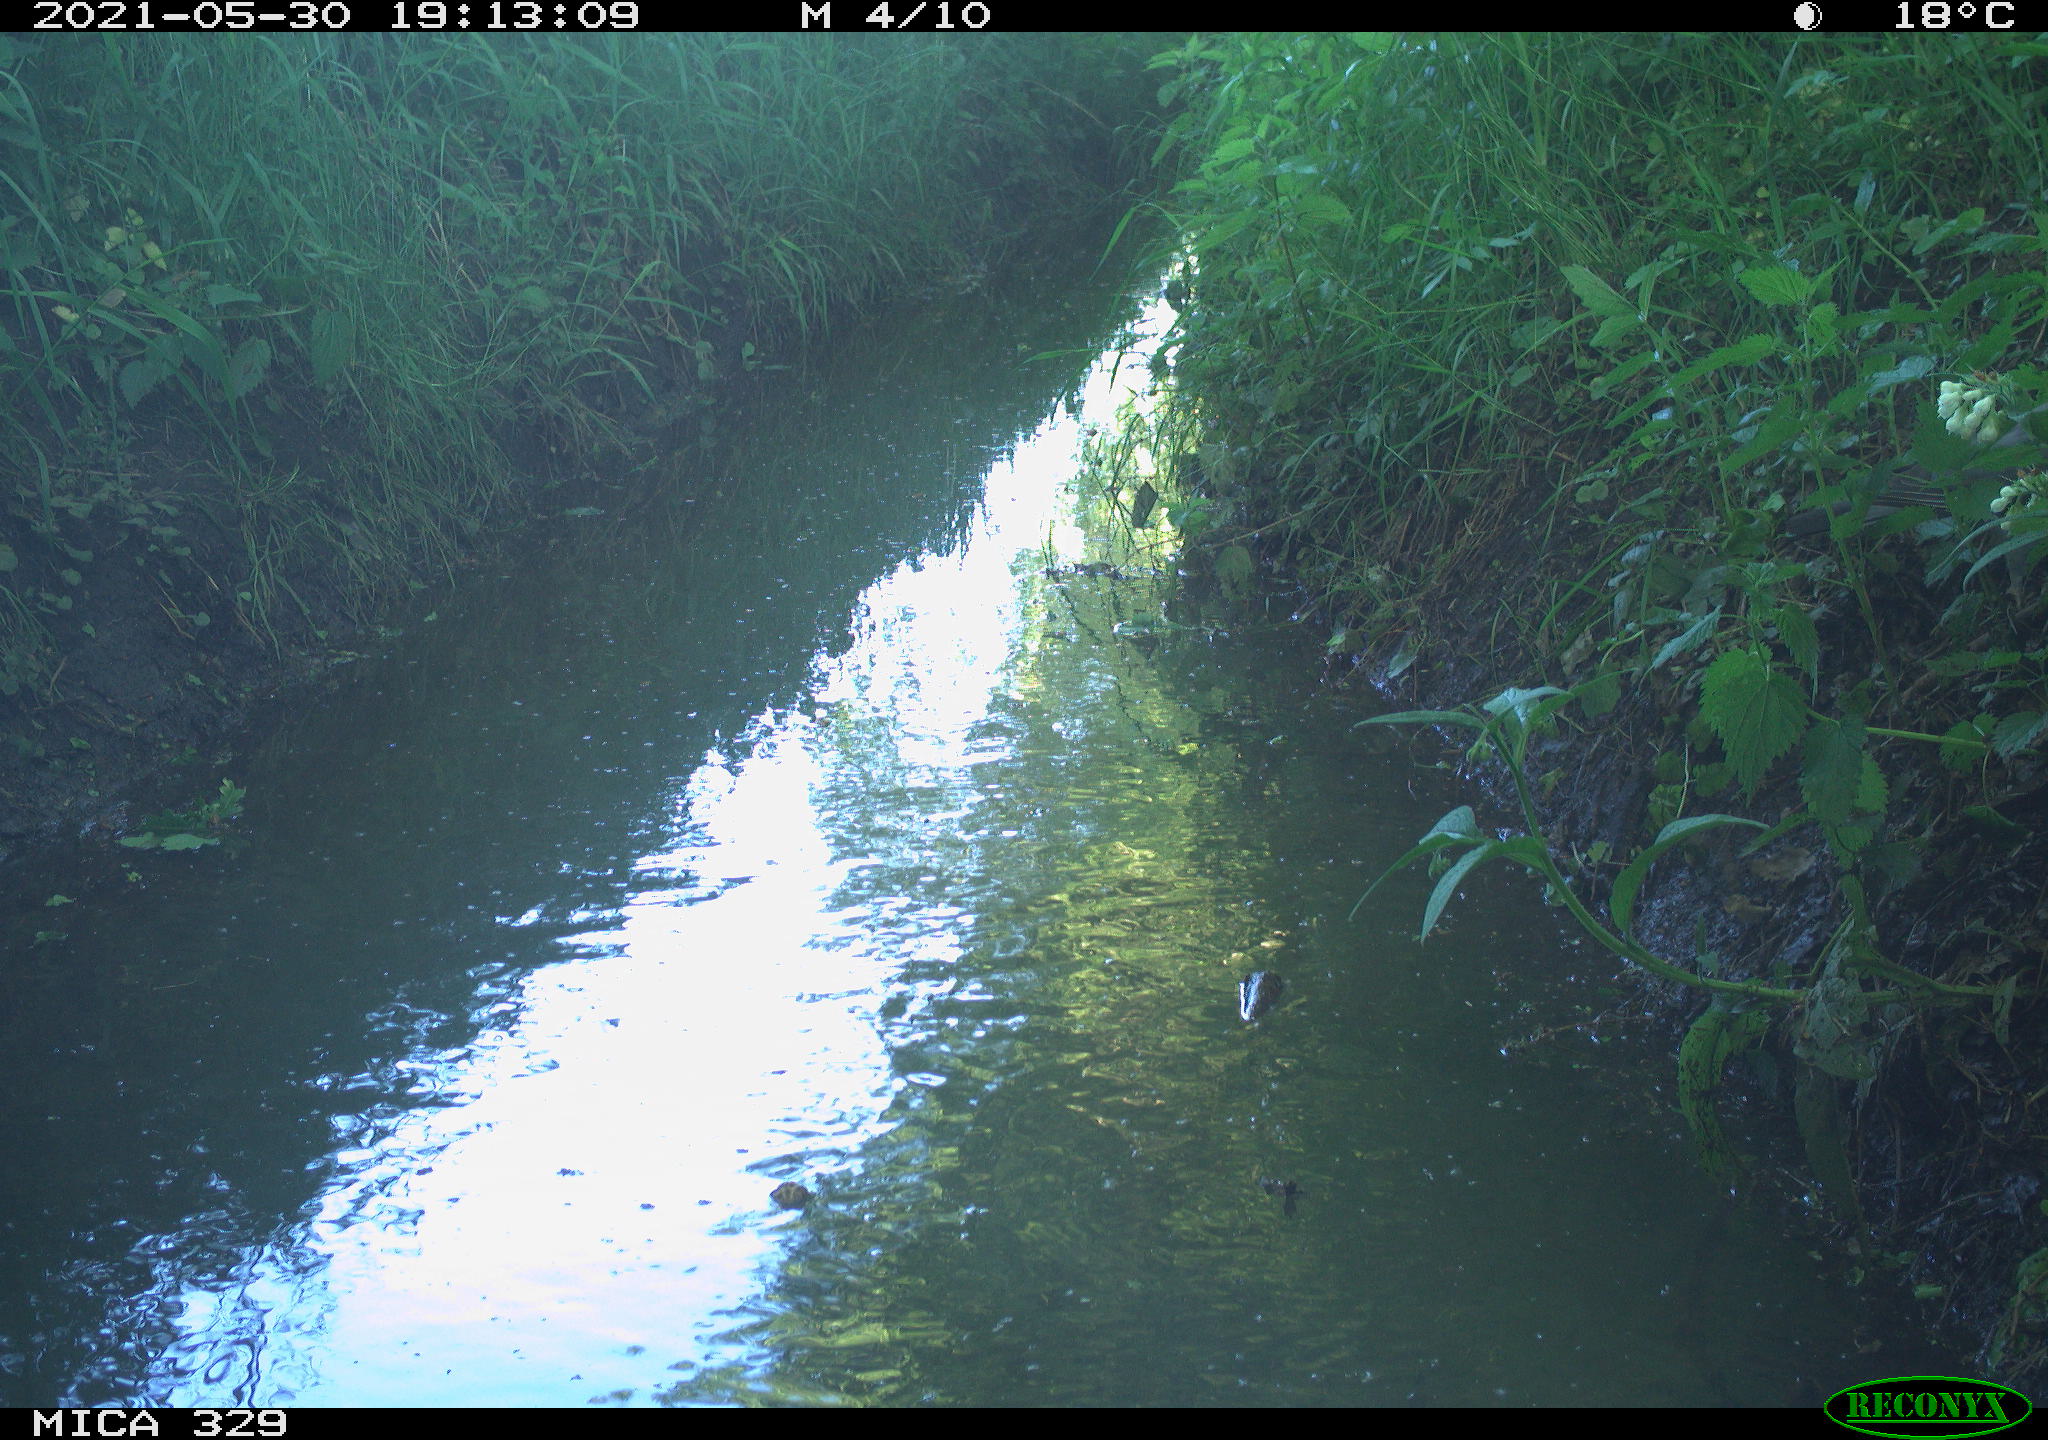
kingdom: Animalia
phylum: Chordata
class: Aves
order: Columbiformes
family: Columbidae
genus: Columba
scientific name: Columba palumbus
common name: Common wood pigeon
